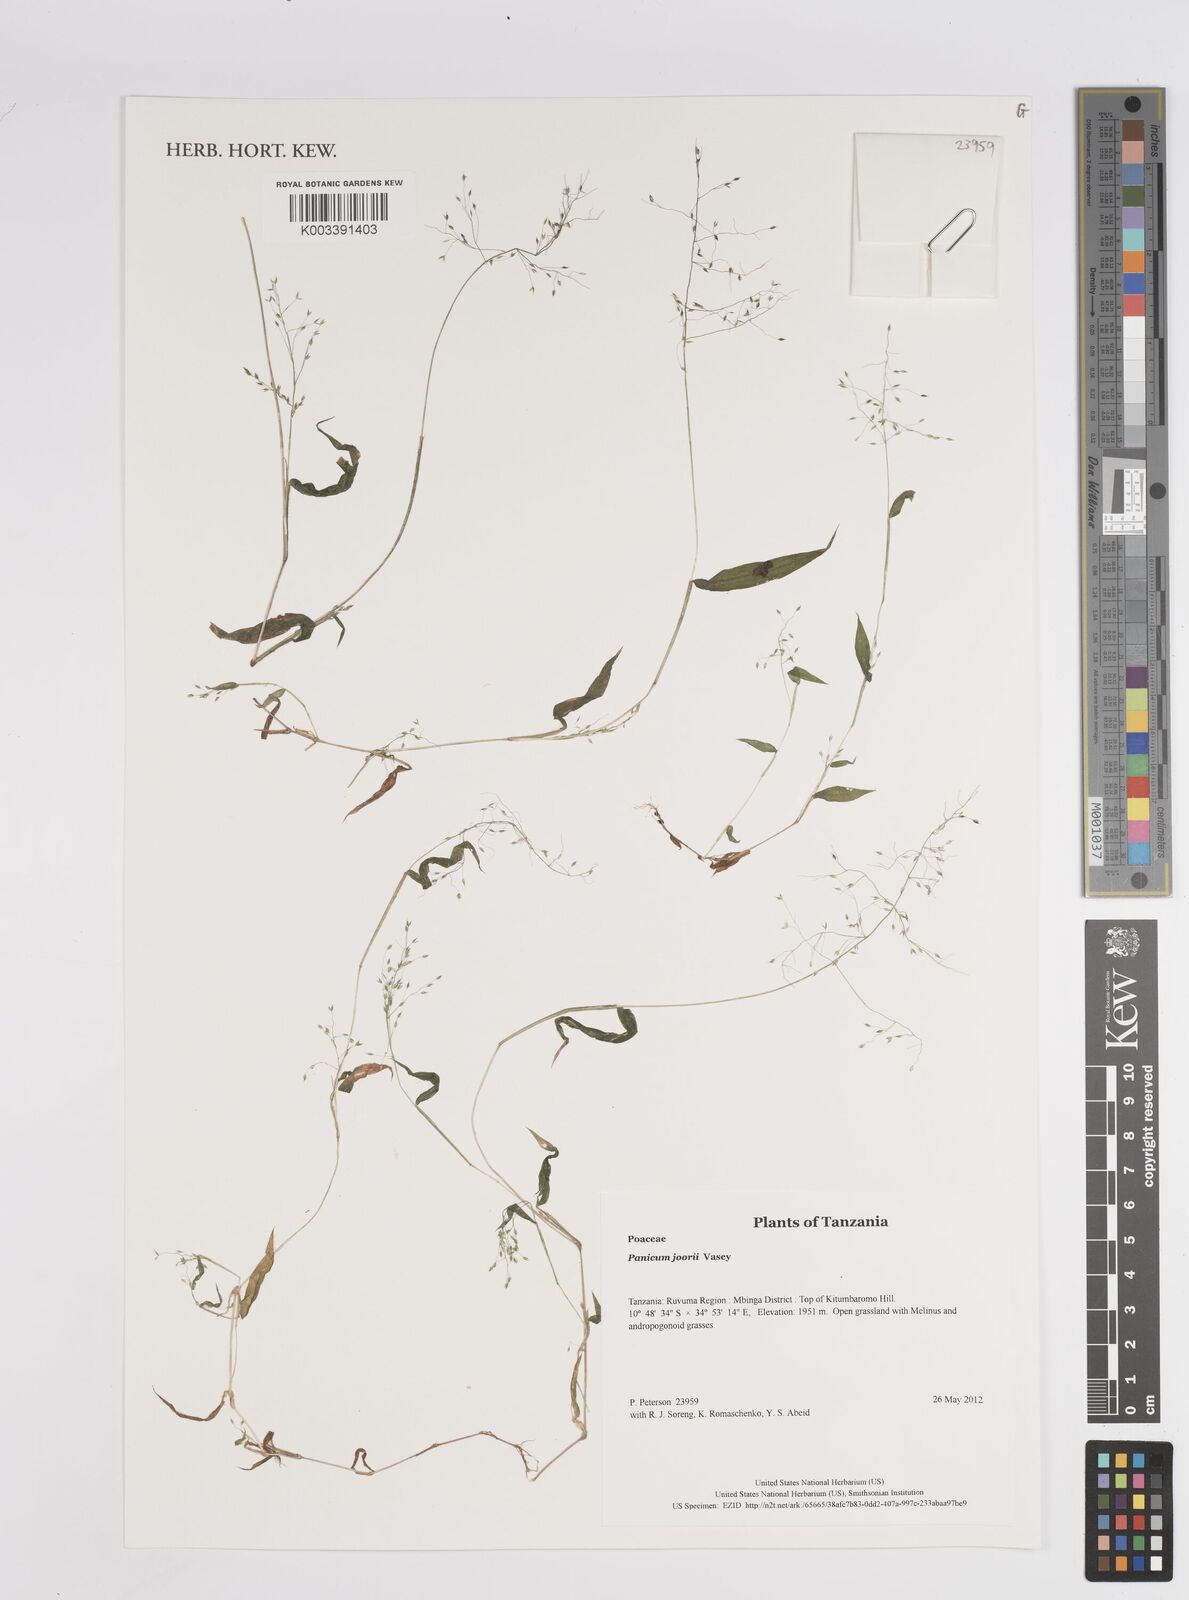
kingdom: Plantae
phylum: Tracheophyta
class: Liliopsida
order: Poales
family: Poaceae
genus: Panicum
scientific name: Panicum
